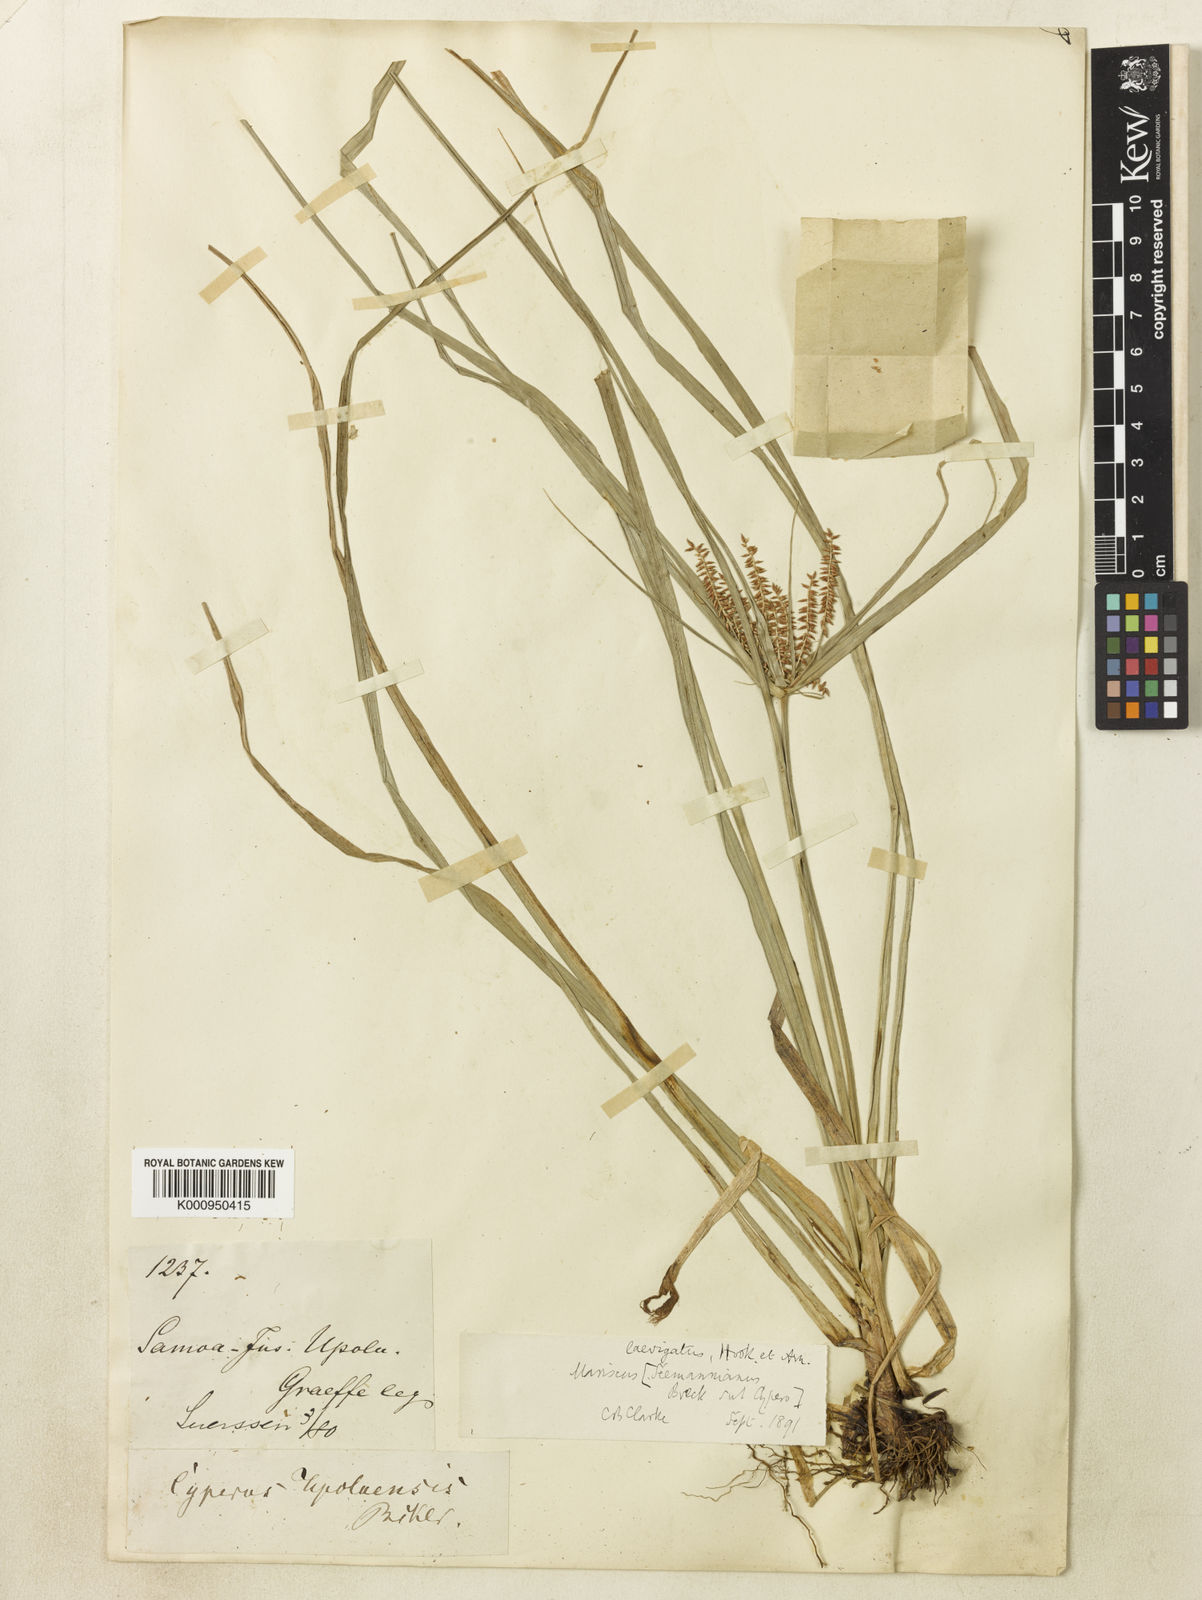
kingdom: Plantae
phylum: Tracheophyta
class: Liliopsida
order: Poales
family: Cyperaceae
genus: Cyperus
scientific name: Cyperus seemannianus
